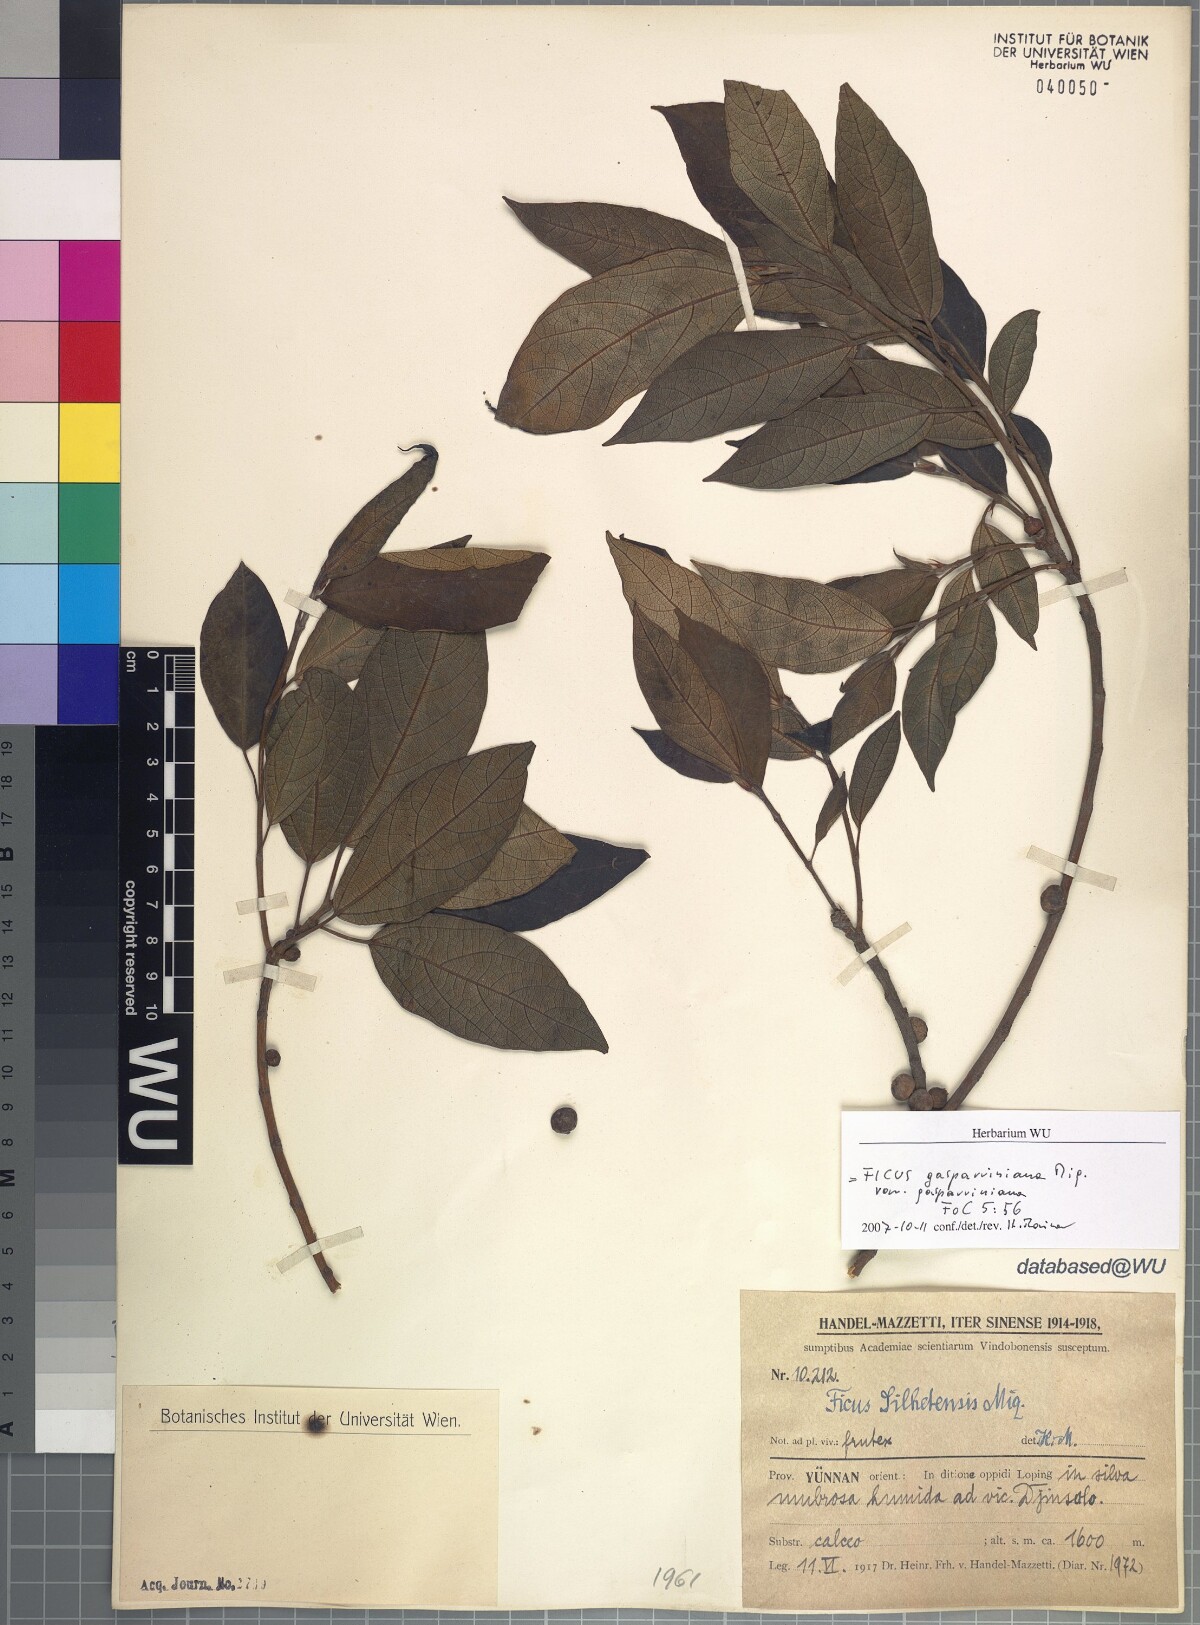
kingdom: Plantae
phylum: Tracheophyta
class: Magnoliopsida
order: Rosales
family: Moraceae
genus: Ficus
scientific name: Ficus neriifolia
